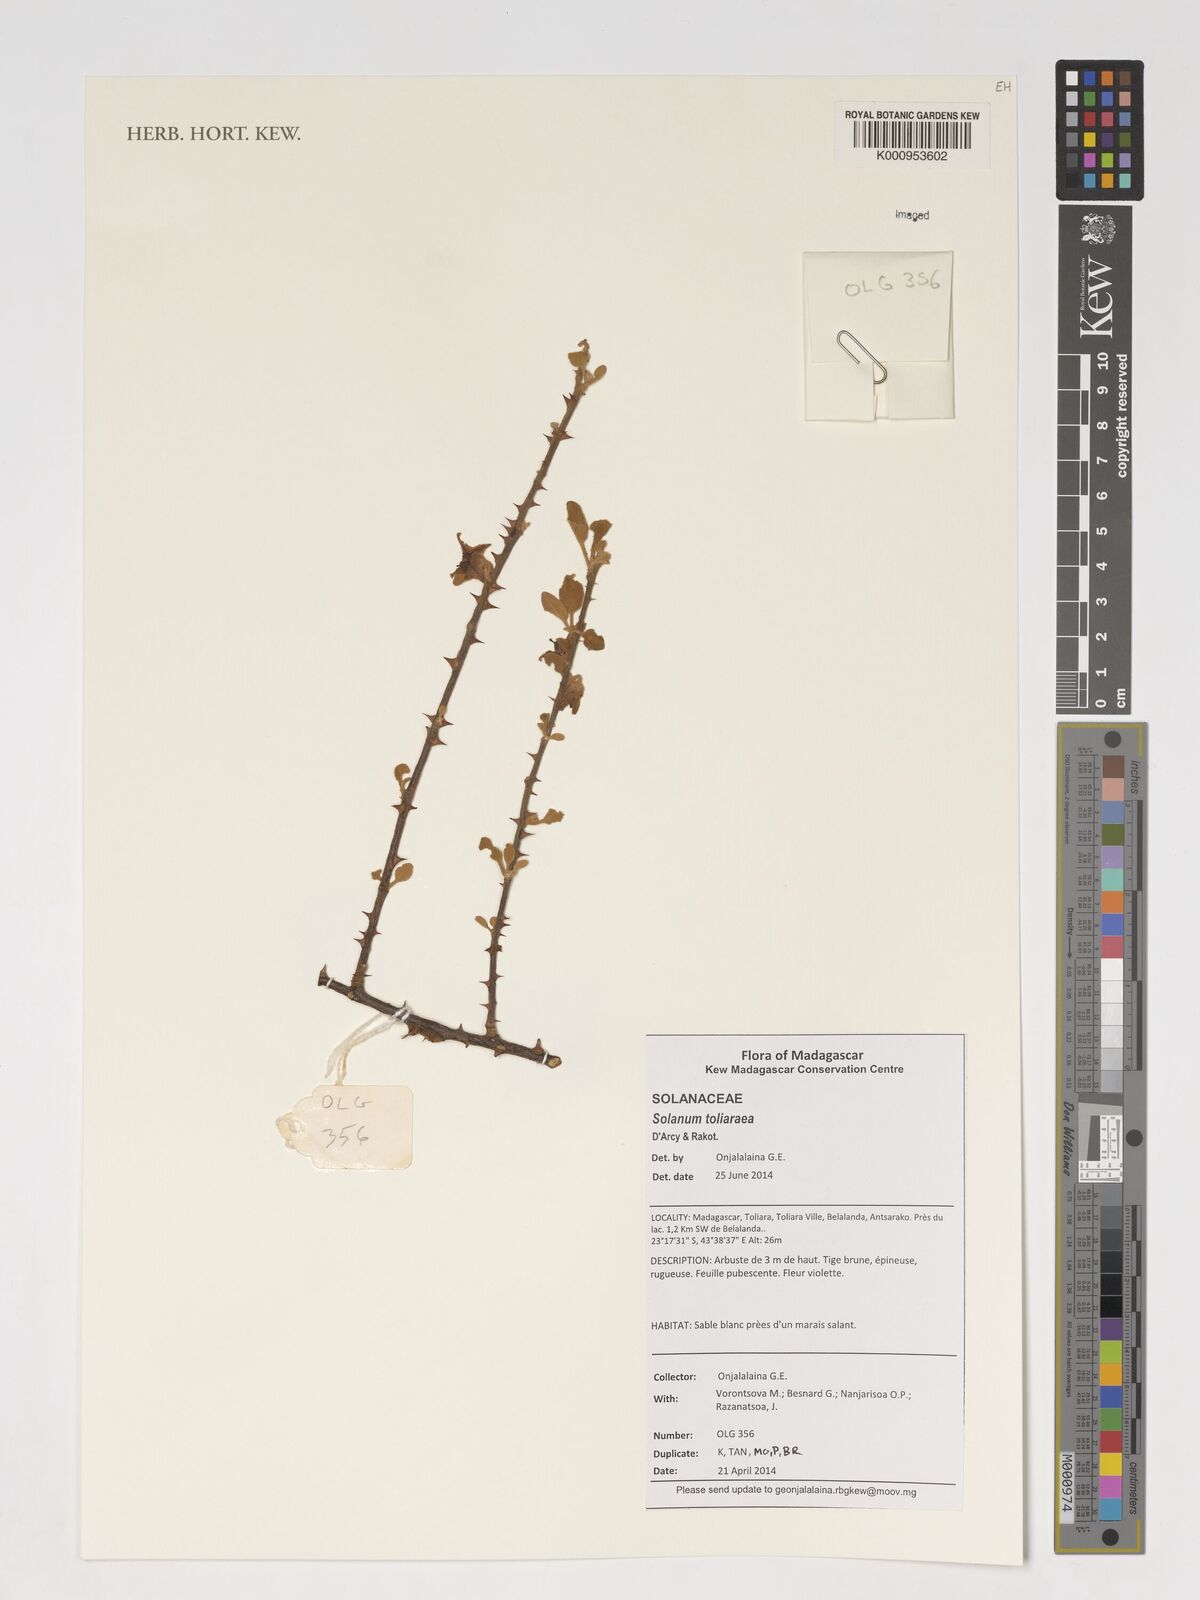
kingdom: Plantae
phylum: Tracheophyta
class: Magnoliopsida
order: Solanales
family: Solanaceae
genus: Solanum
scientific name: Solanum toliaraea
